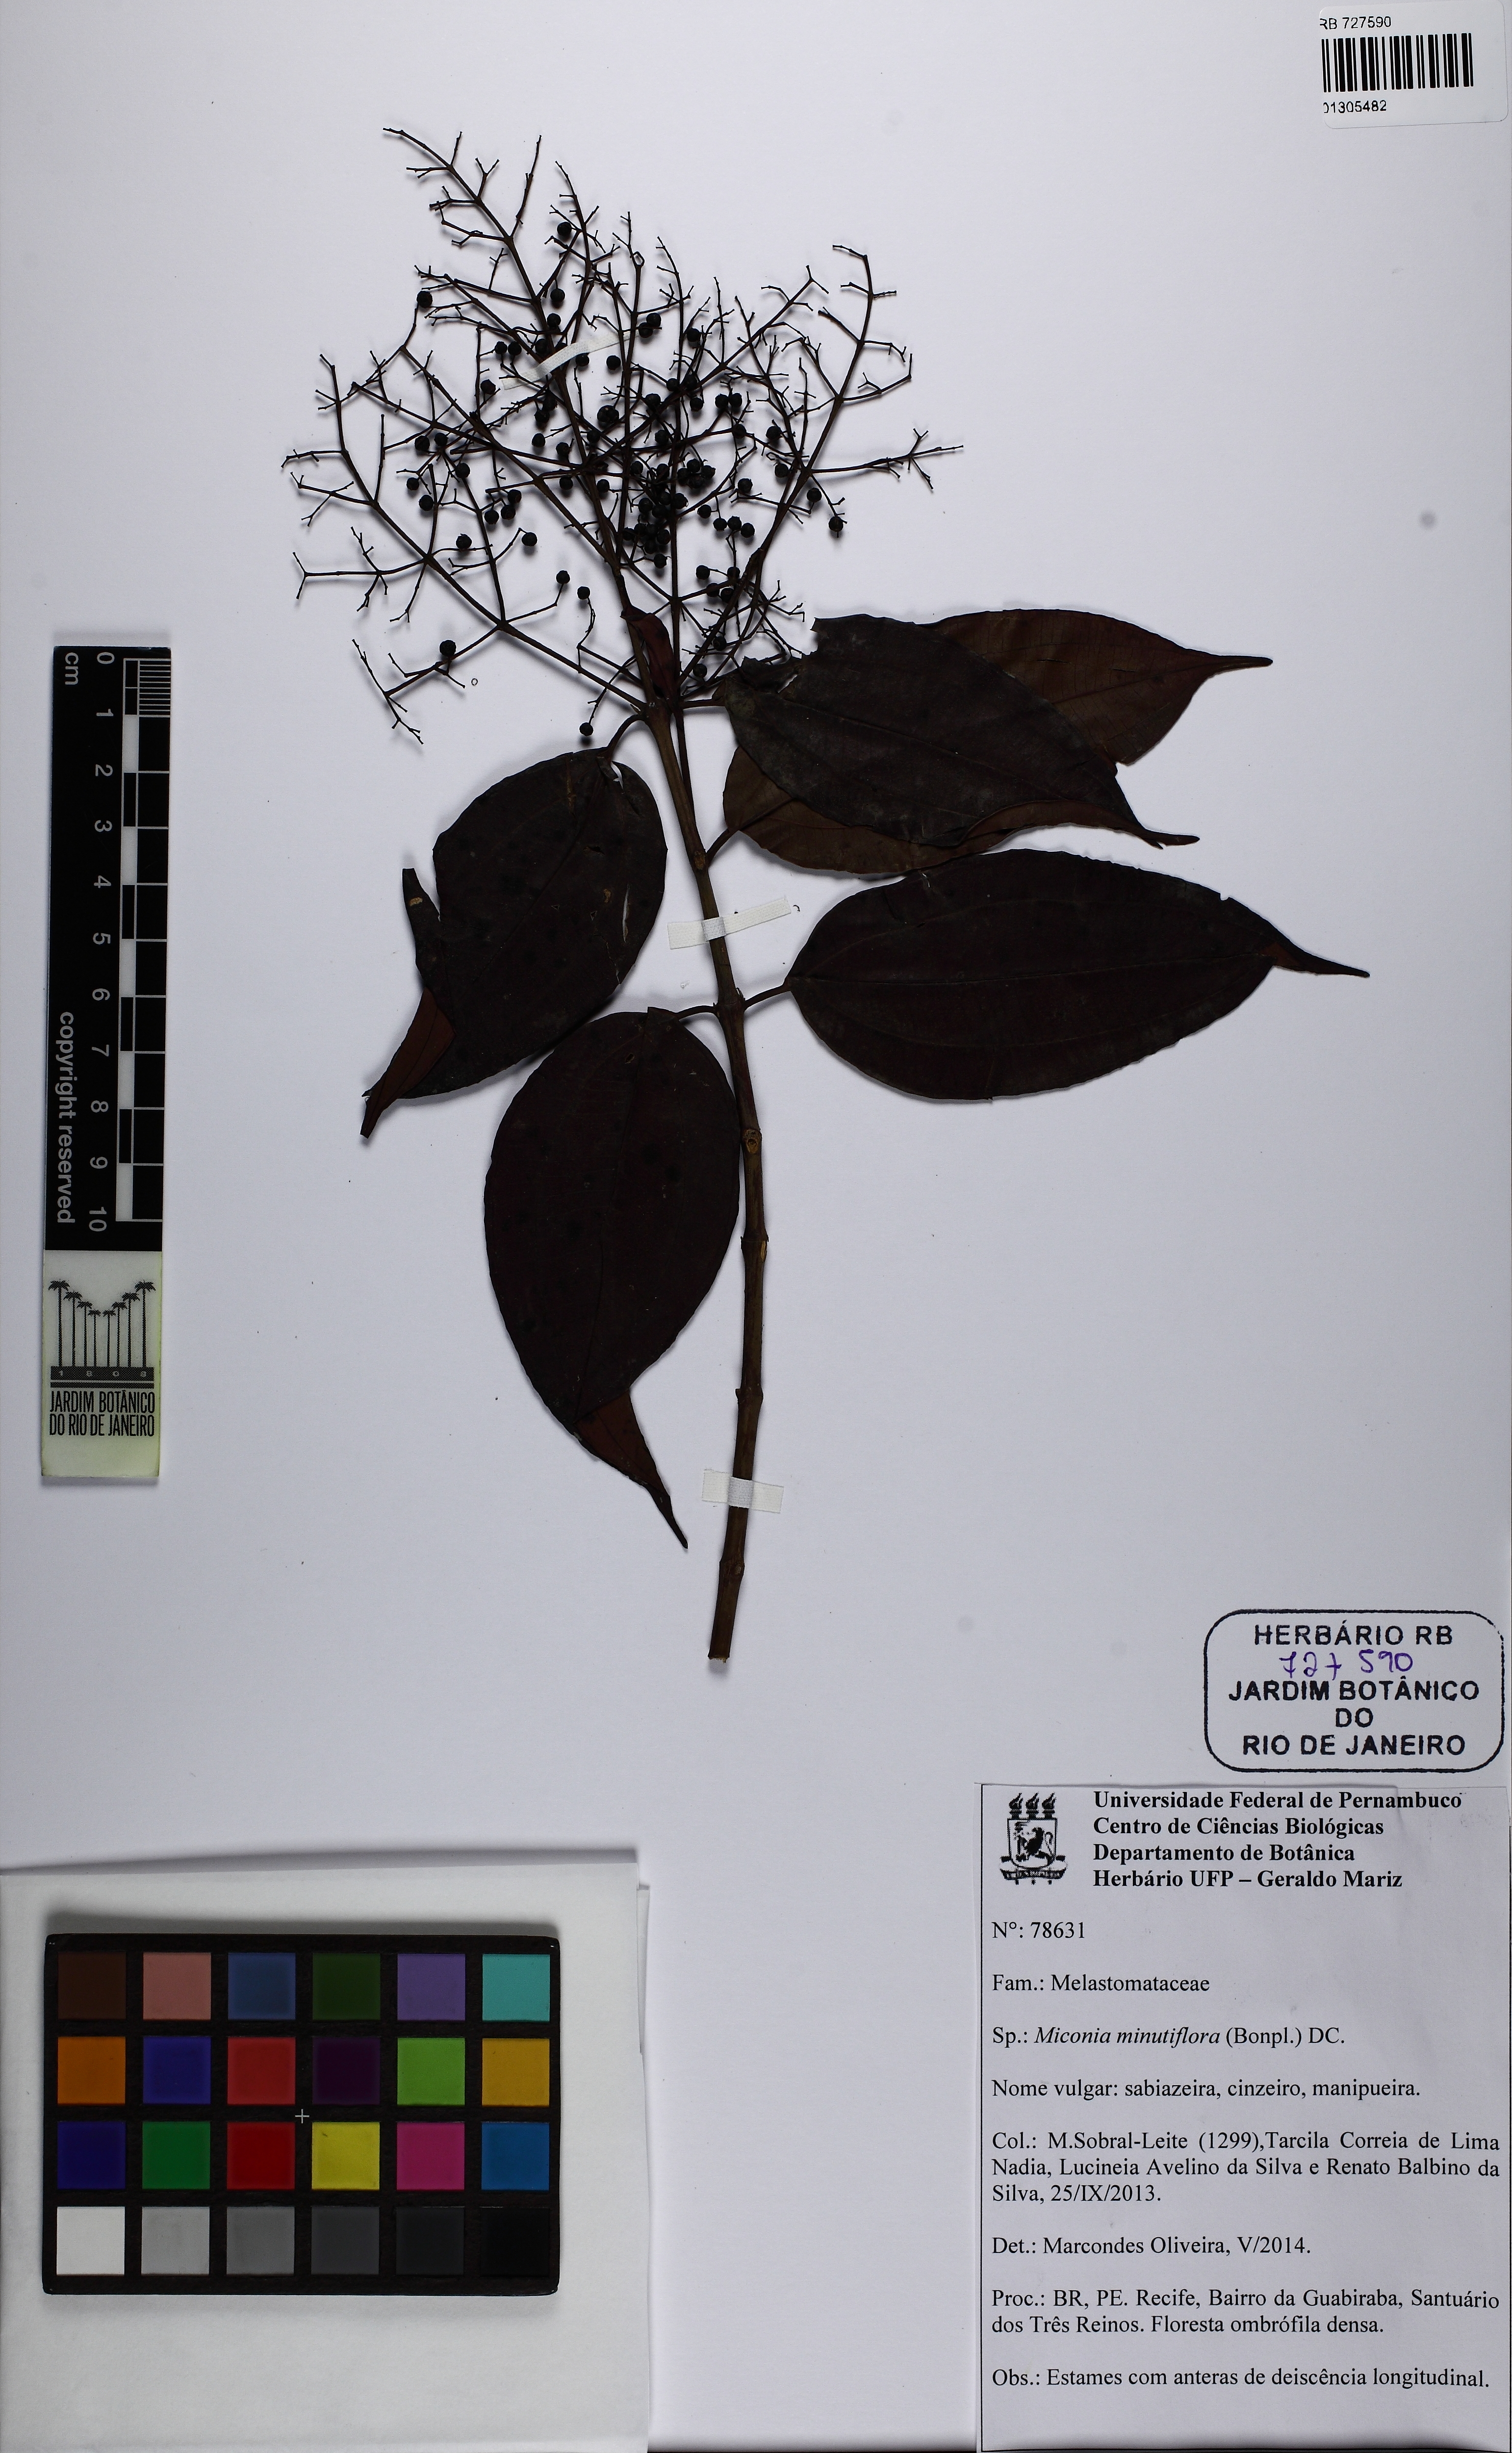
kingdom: Plantae
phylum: Tracheophyta
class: Magnoliopsida
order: Myrtales
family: Melastomataceae
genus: Miconia
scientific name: Miconia minutiflora
